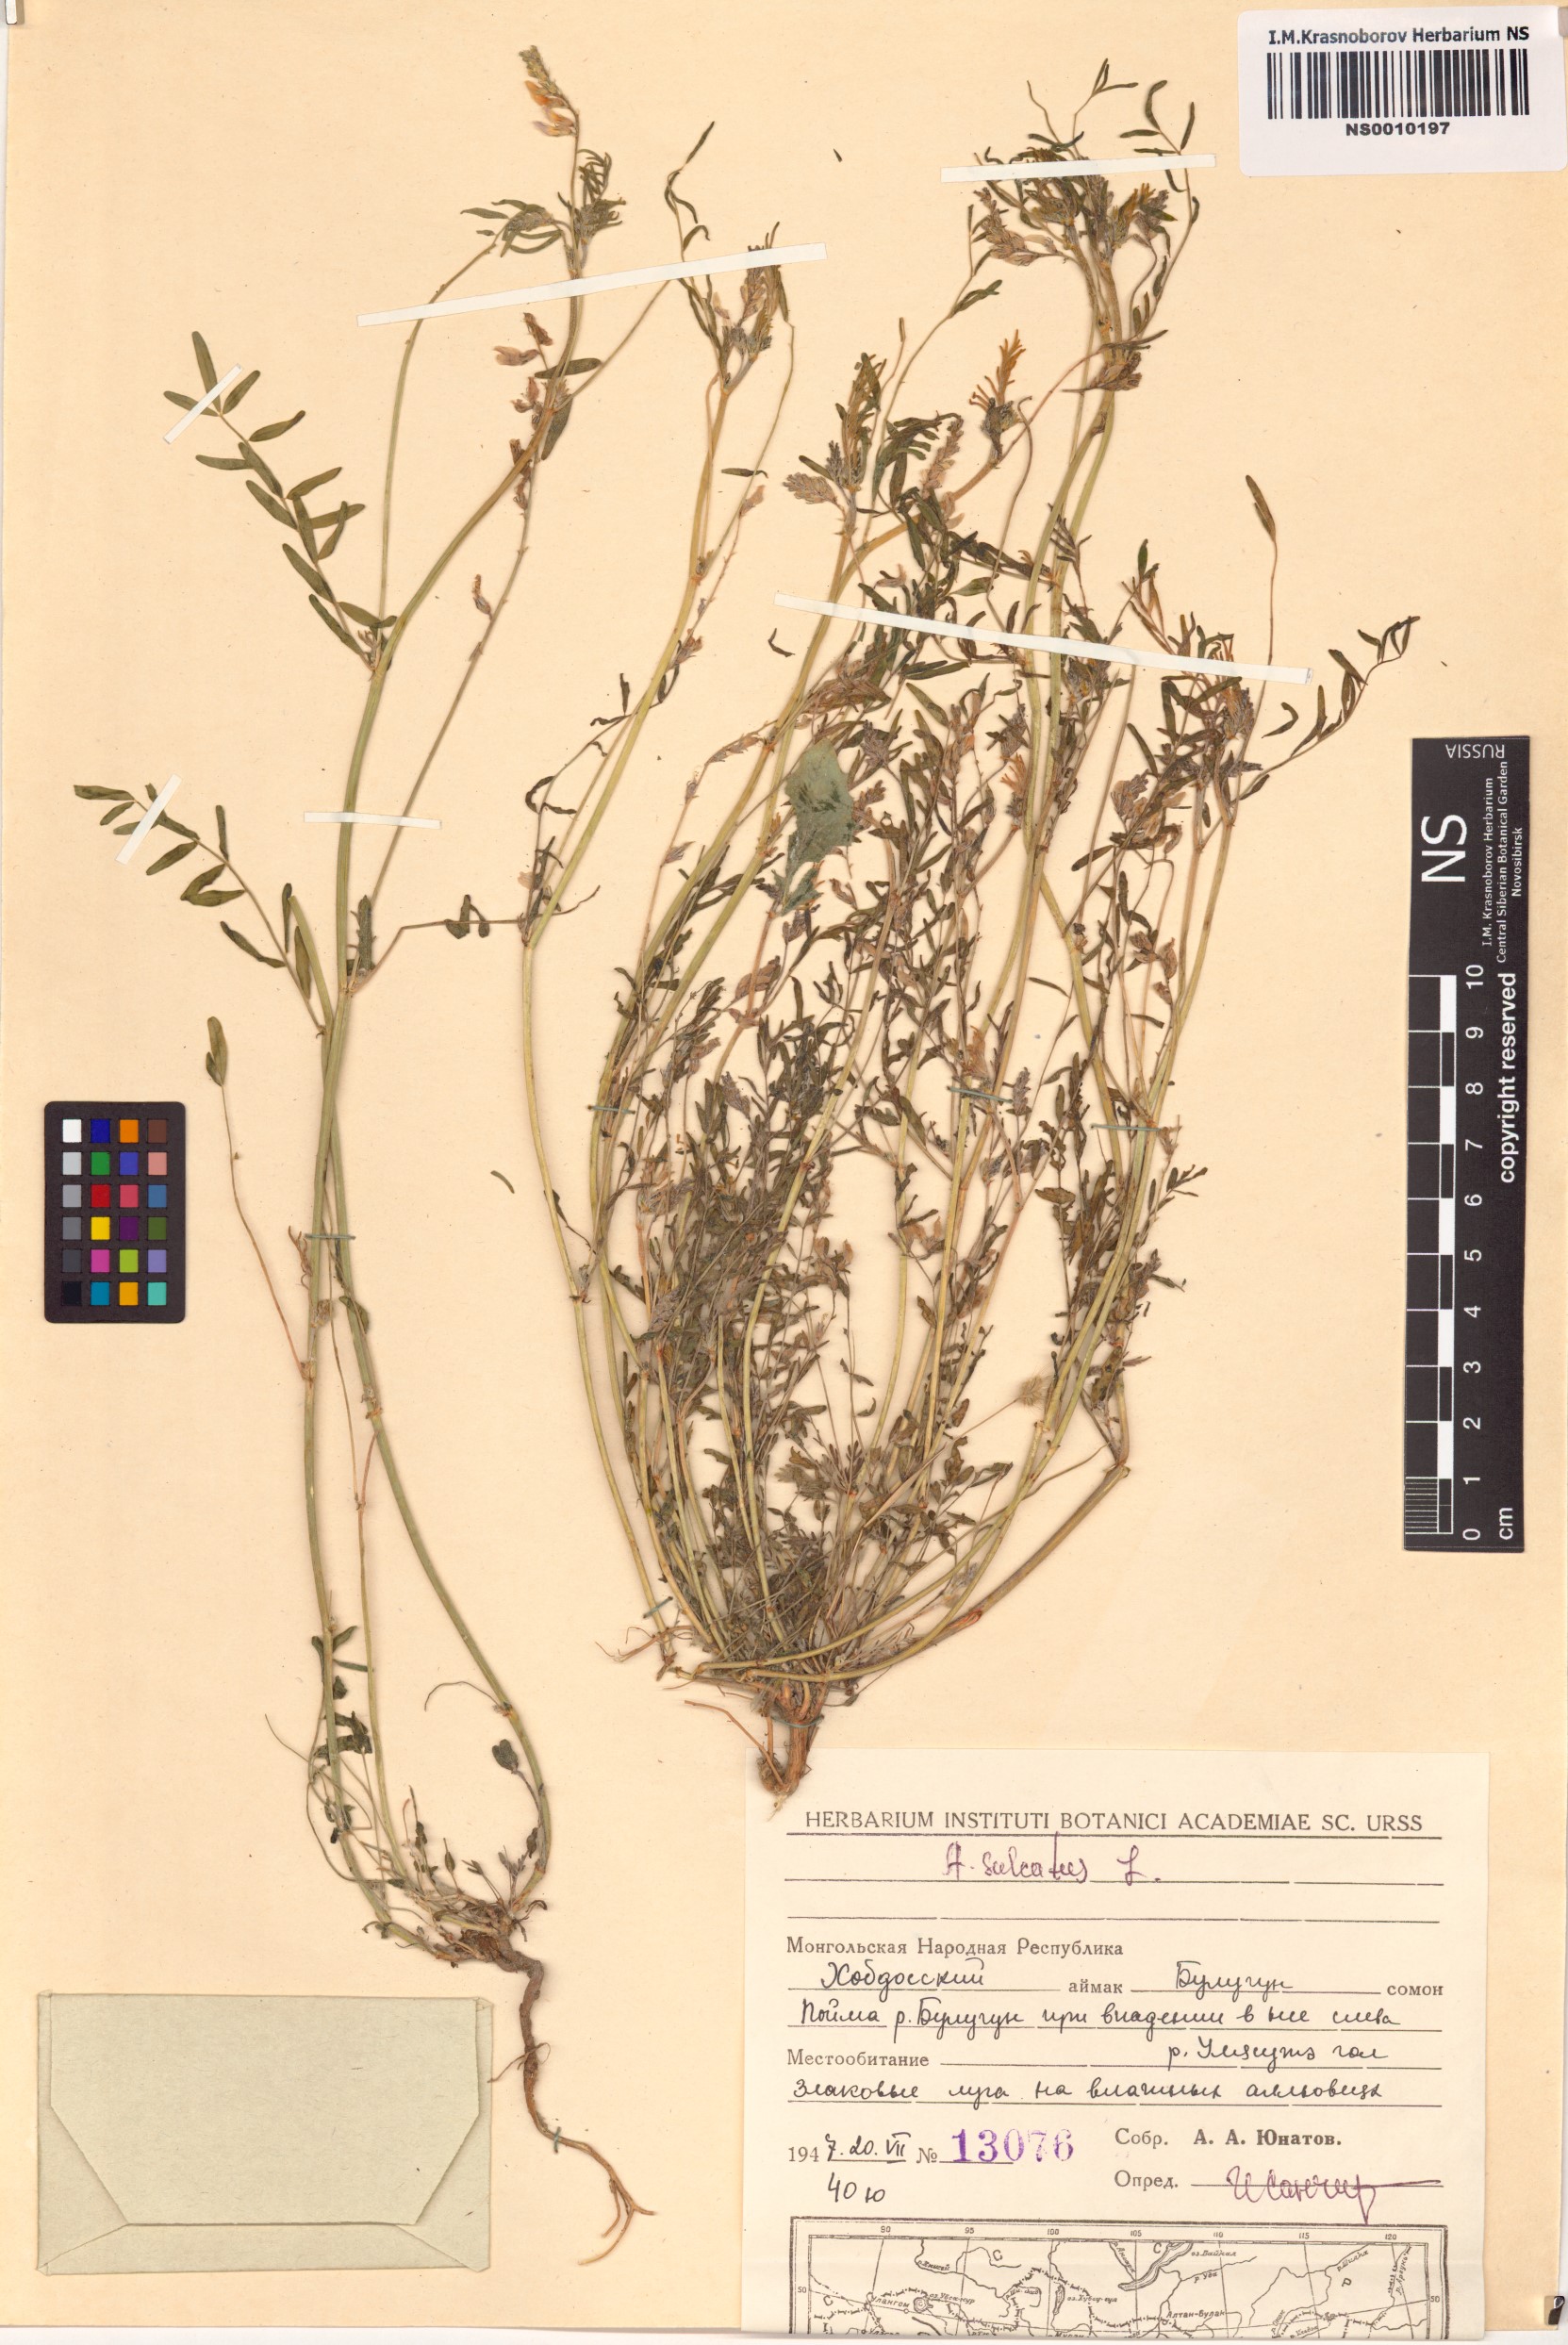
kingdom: Plantae
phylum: Tracheophyta
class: Magnoliopsida
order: Fabales
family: Fabaceae
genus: Astragalus
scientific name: Astragalus sulcatus
